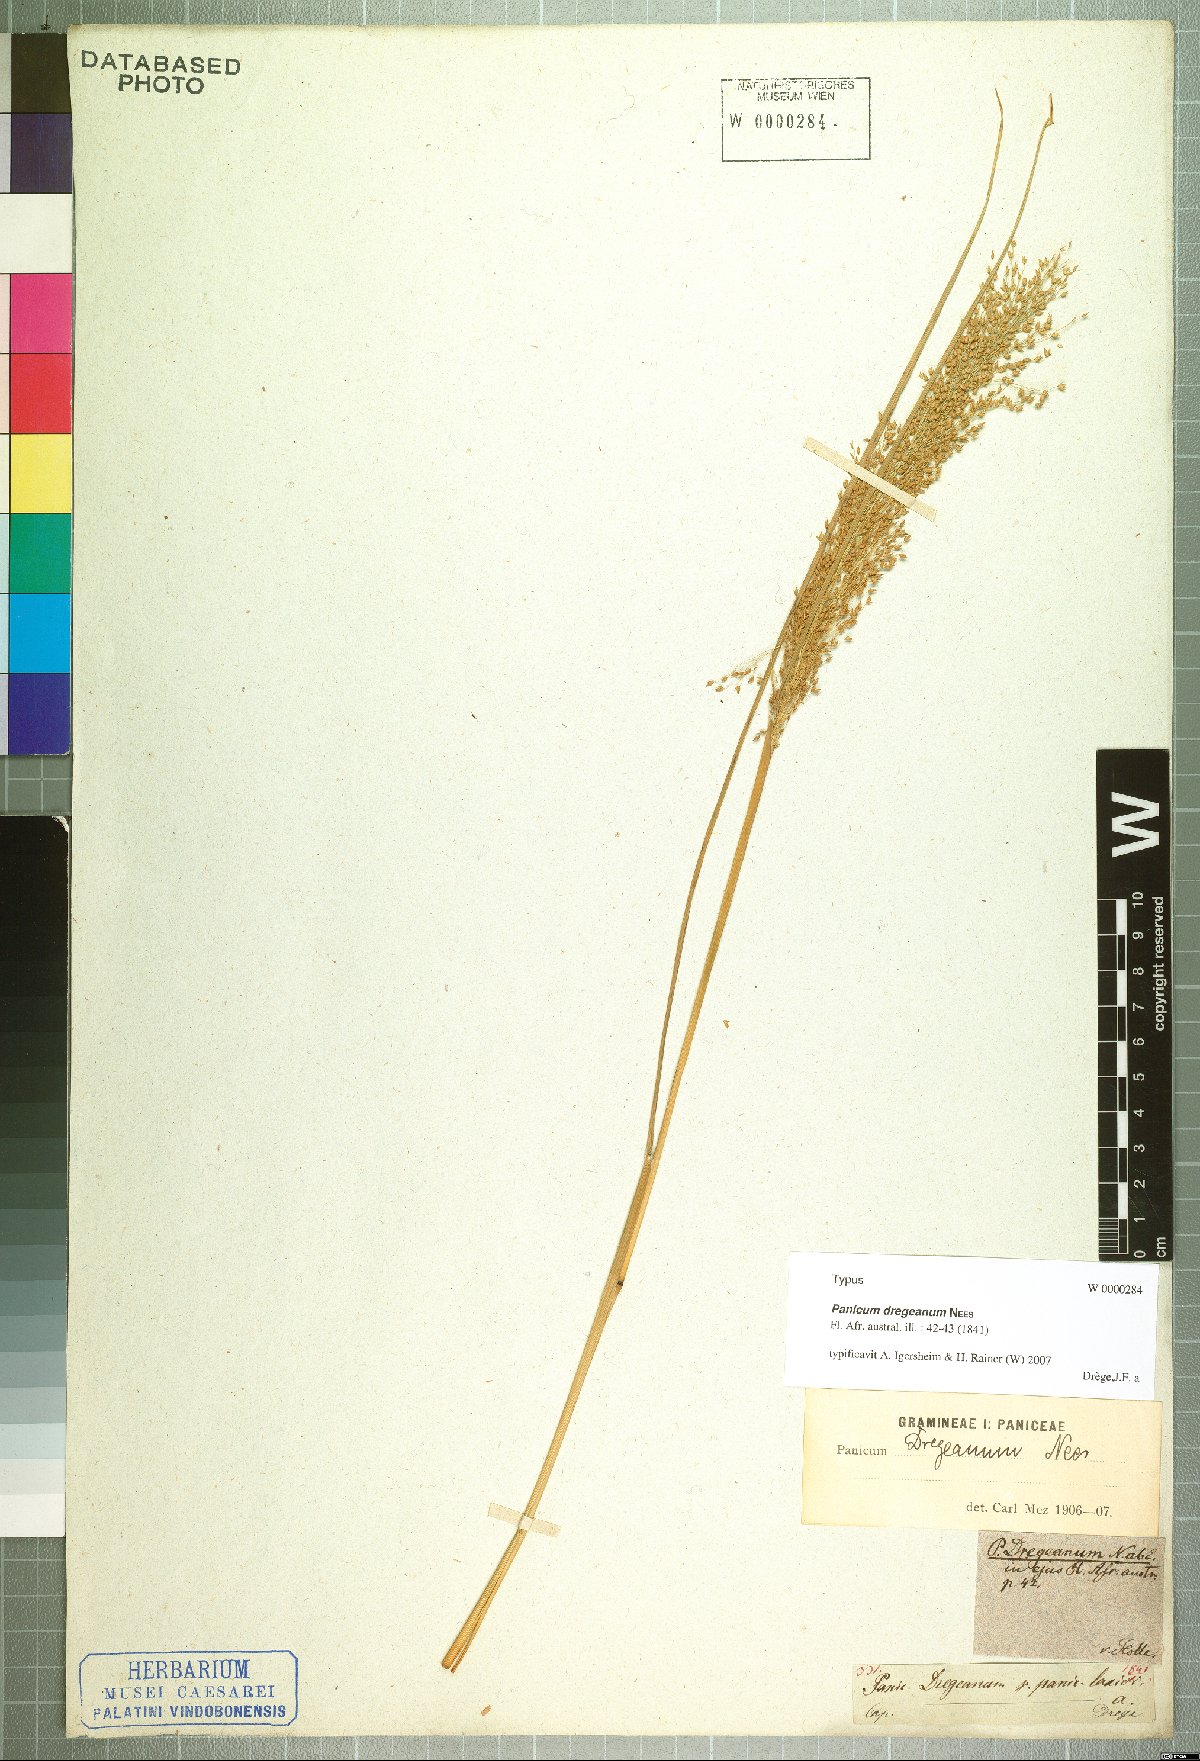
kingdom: Plantae
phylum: Tracheophyta
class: Liliopsida
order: Poales
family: Poaceae
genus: Panicum
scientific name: Panicum dregeanum
